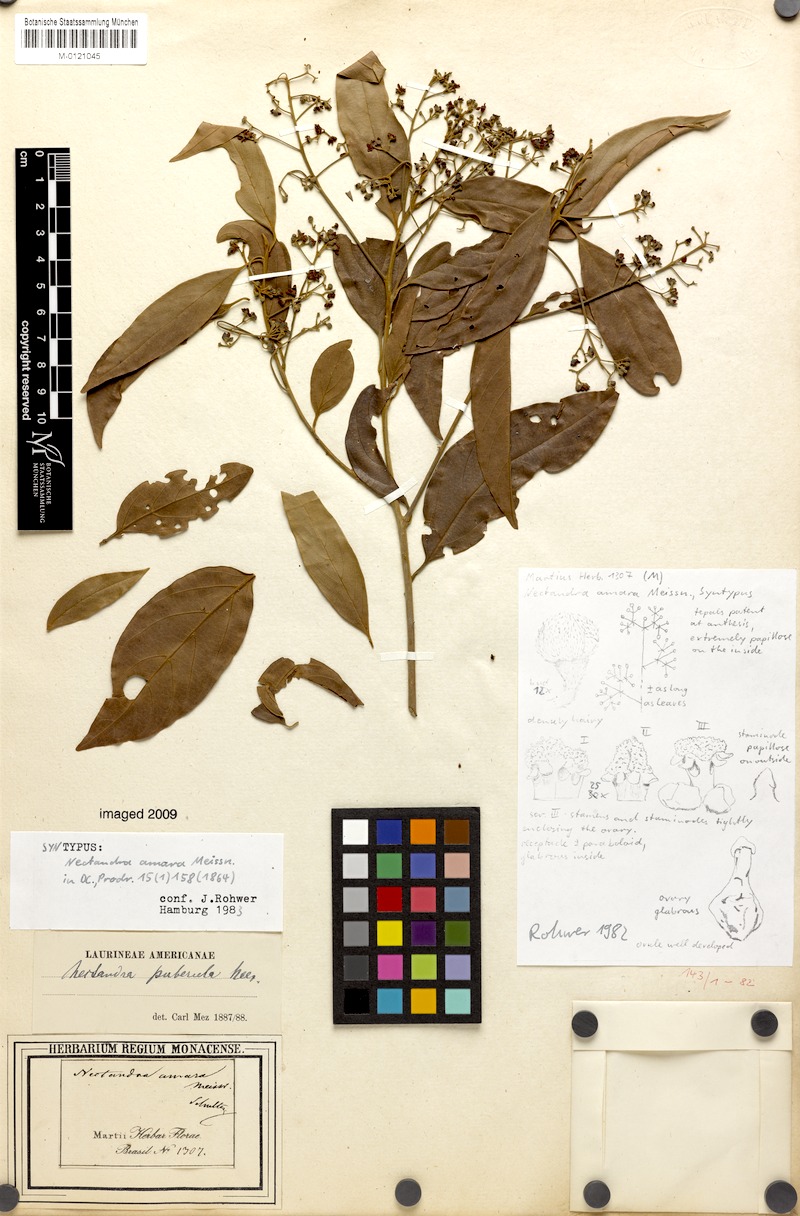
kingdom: Plantae
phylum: Tracheophyta
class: Magnoliopsida
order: Laurales
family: Lauraceae
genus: Nectandra
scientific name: Nectandra puberula
